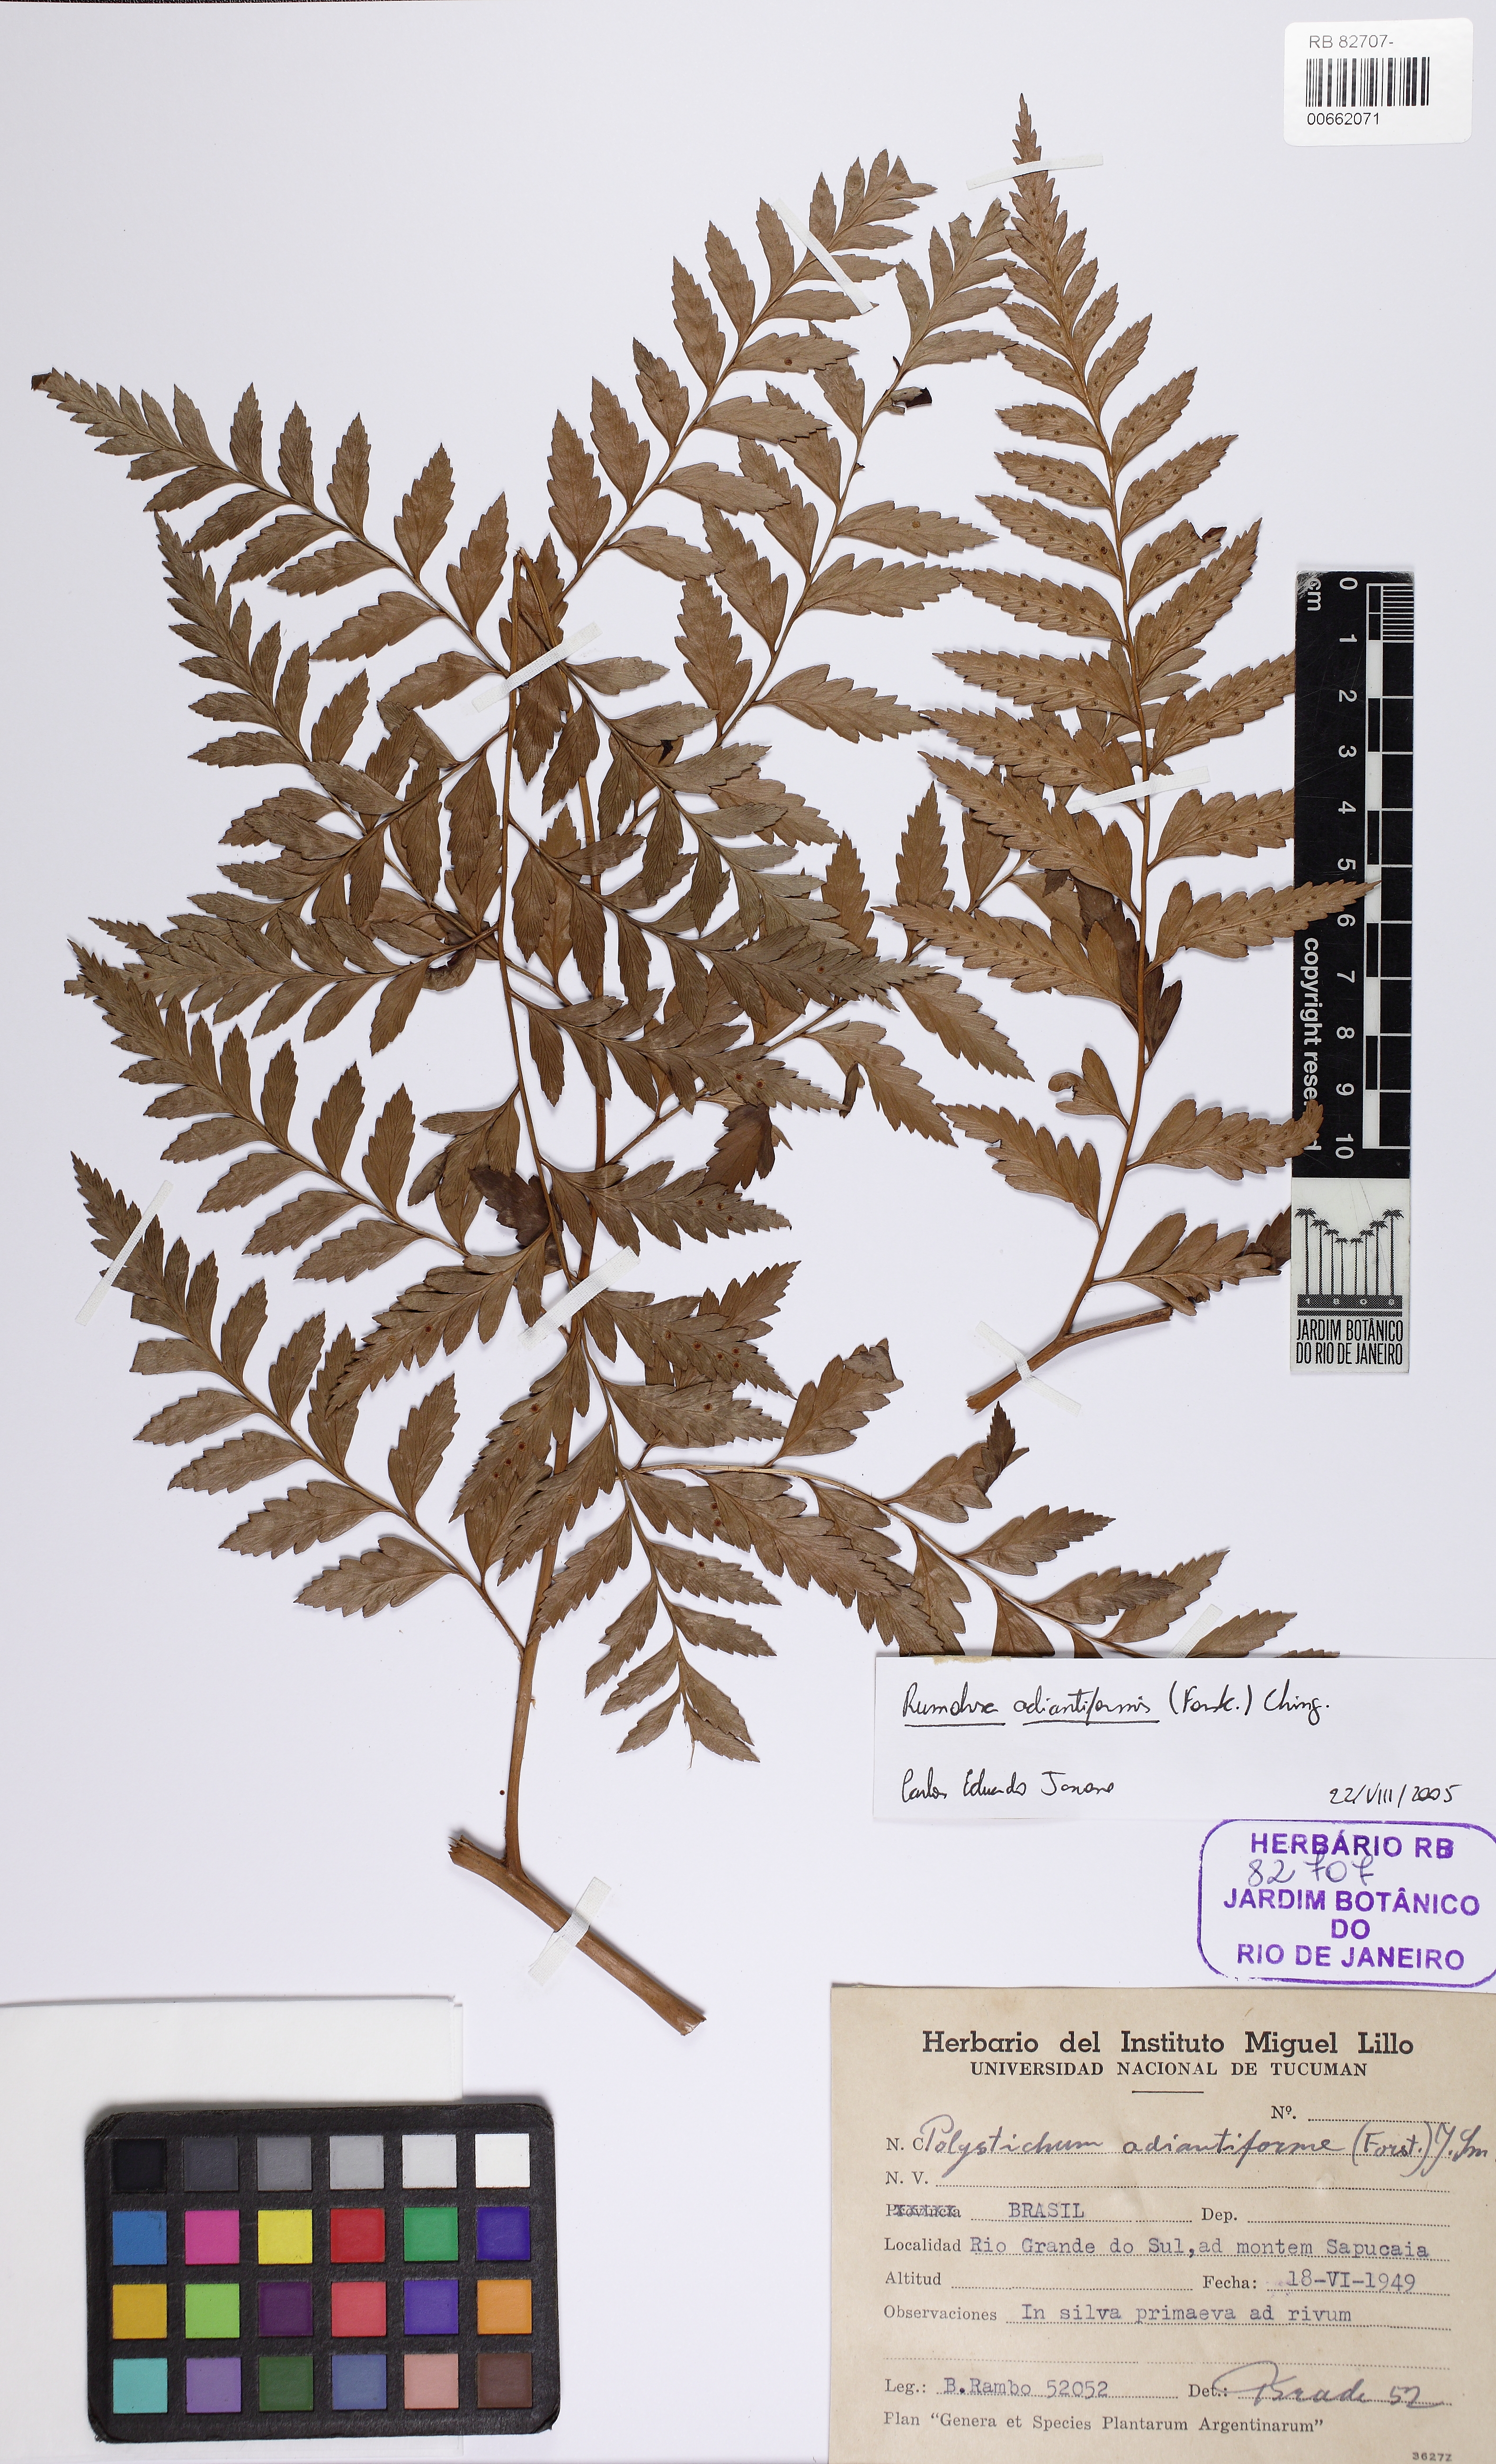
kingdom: Plantae
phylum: Tracheophyta
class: Polypodiopsida
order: Polypodiales
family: Dryopteridaceae
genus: Rumohra
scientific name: Rumohra adiantiformis
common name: Leather fern
